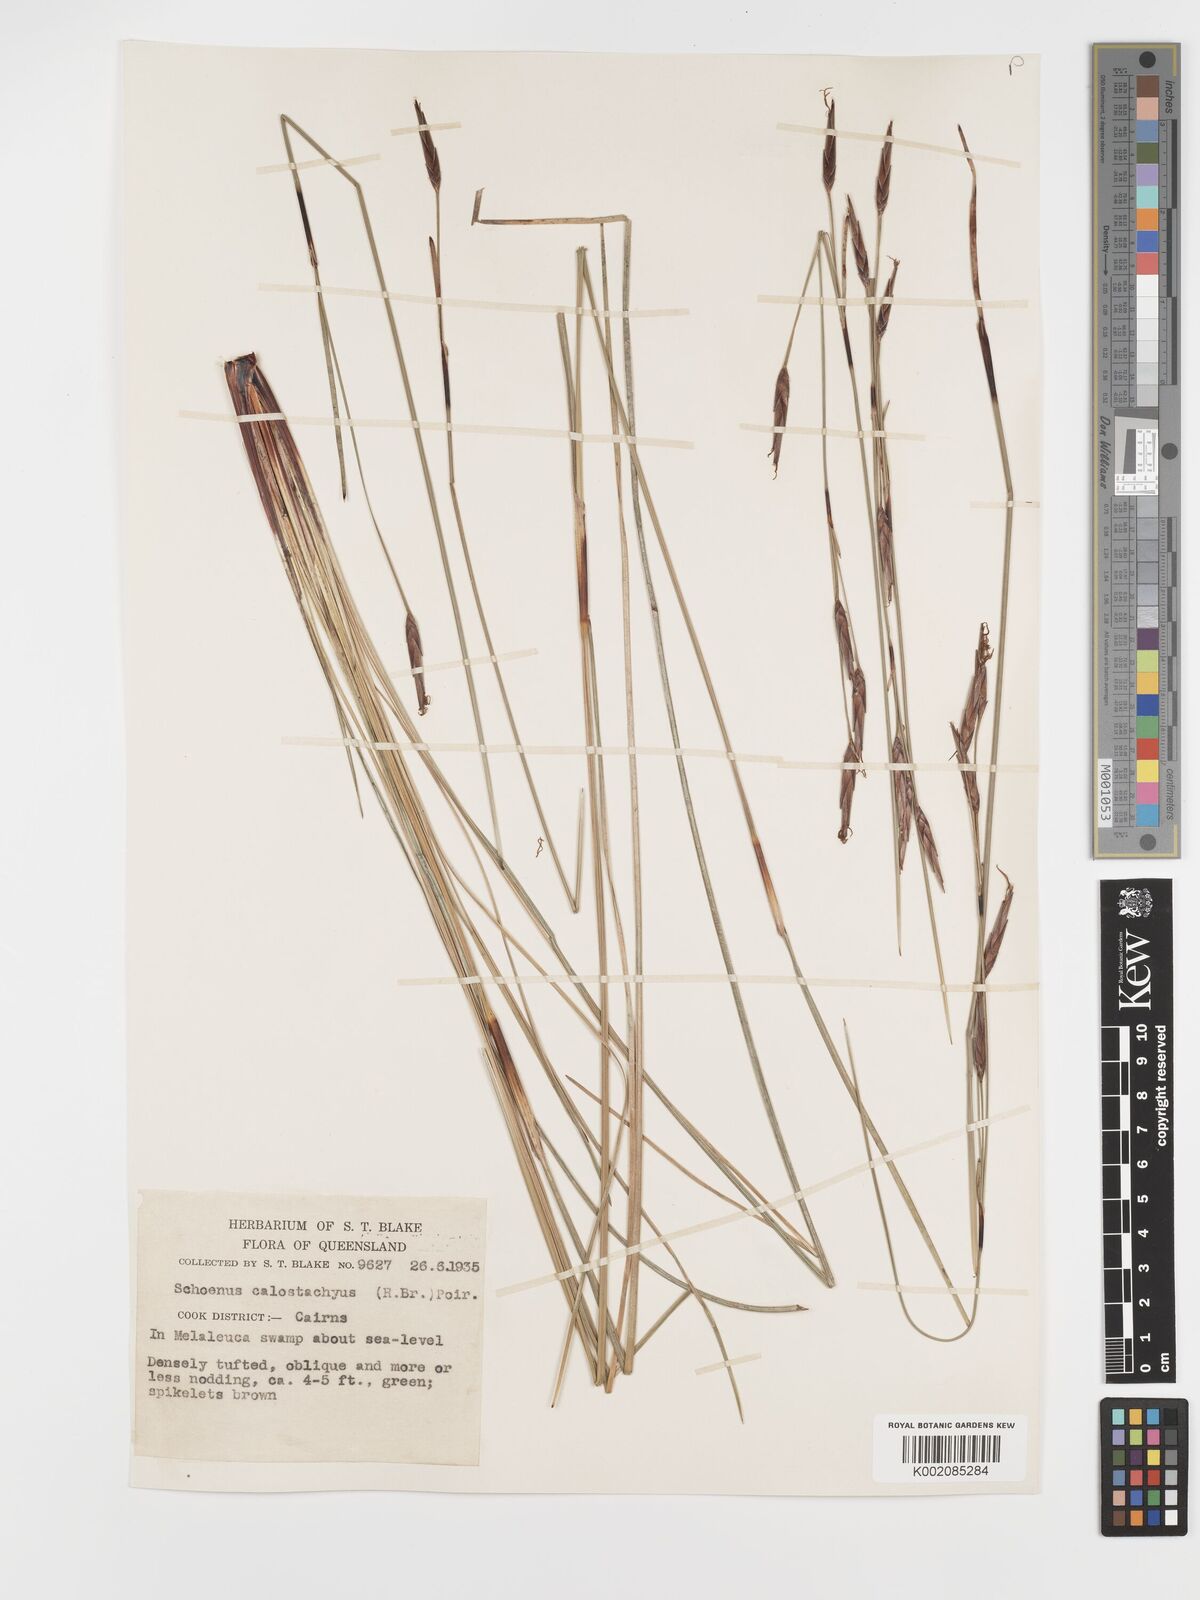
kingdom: Plantae
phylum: Tracheophyta
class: Liliopsida
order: Poales
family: Cyperaceae
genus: Schoenus
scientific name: Schoenus calostachyus
